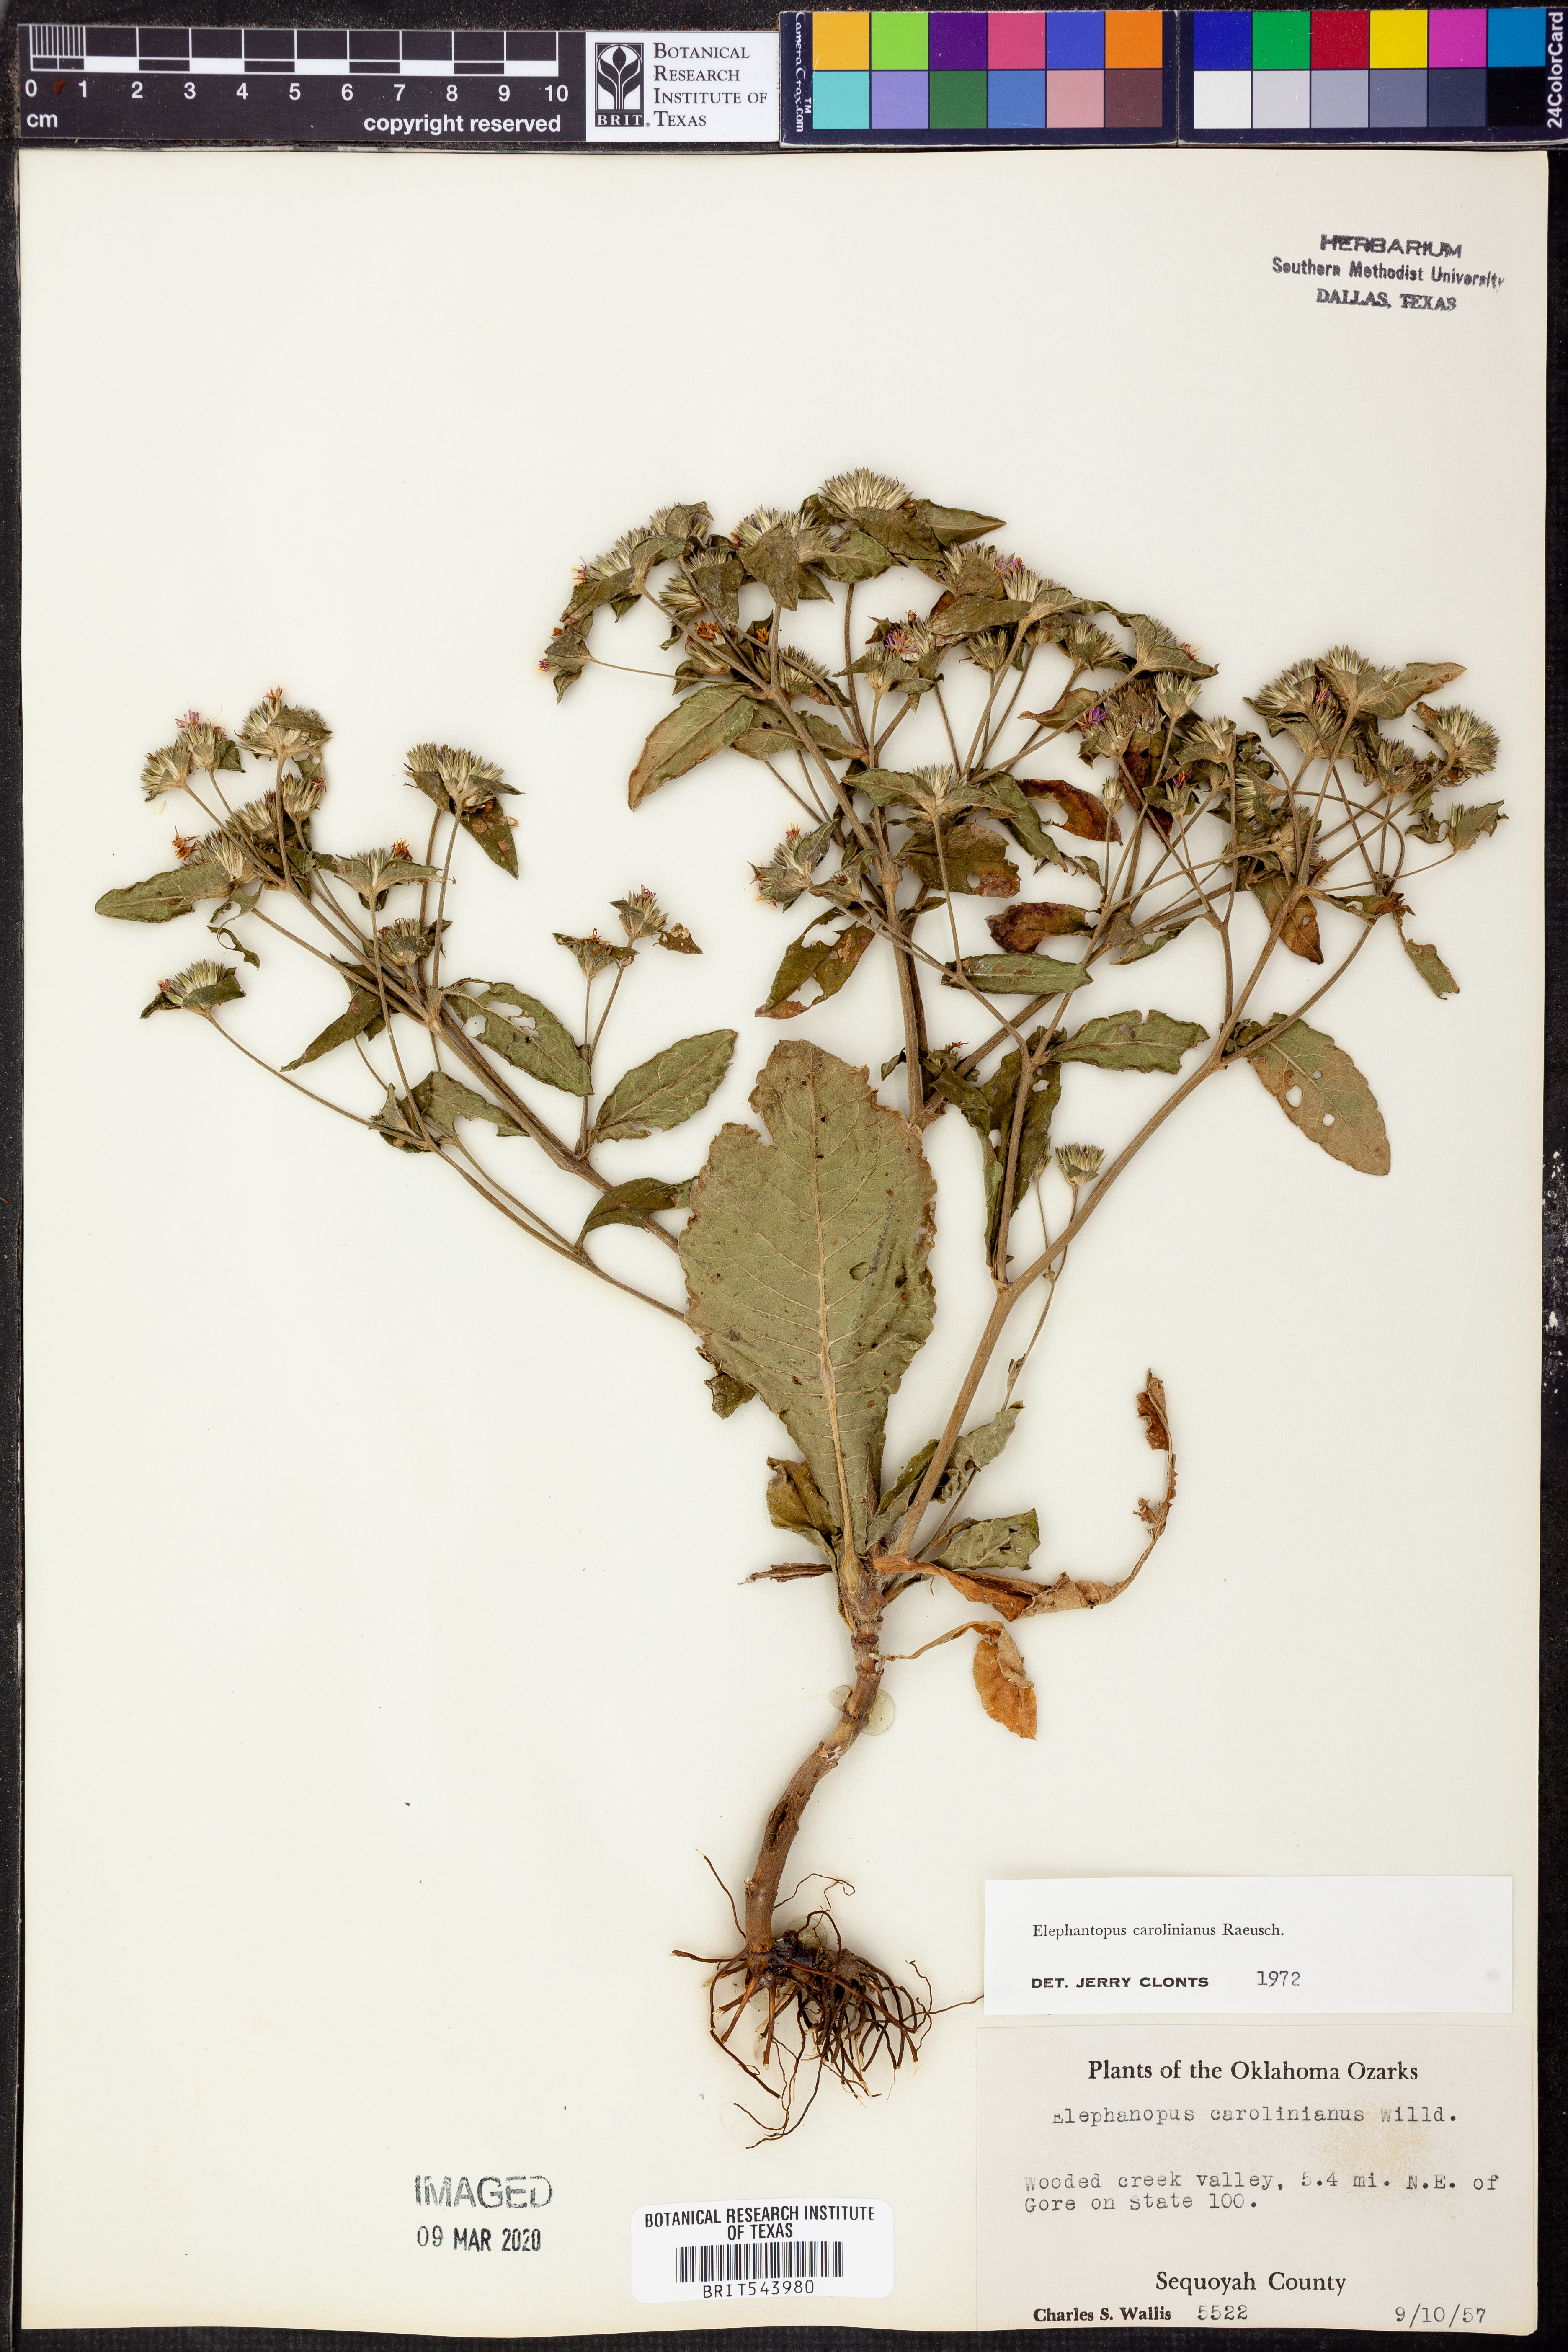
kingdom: Plantae
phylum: Tracheophyta
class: Magnoliopsida
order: Asterales
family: Asteraceae
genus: Elephantopus
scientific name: Elephantopus carolinianus
